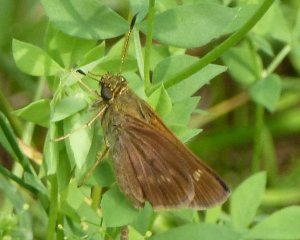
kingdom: Animalia
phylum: Arthropoda
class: Insecta
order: Lepidoptera
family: Hesperiidae
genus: Euphyes
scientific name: Euphyes vestris
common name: Dun Skipper
